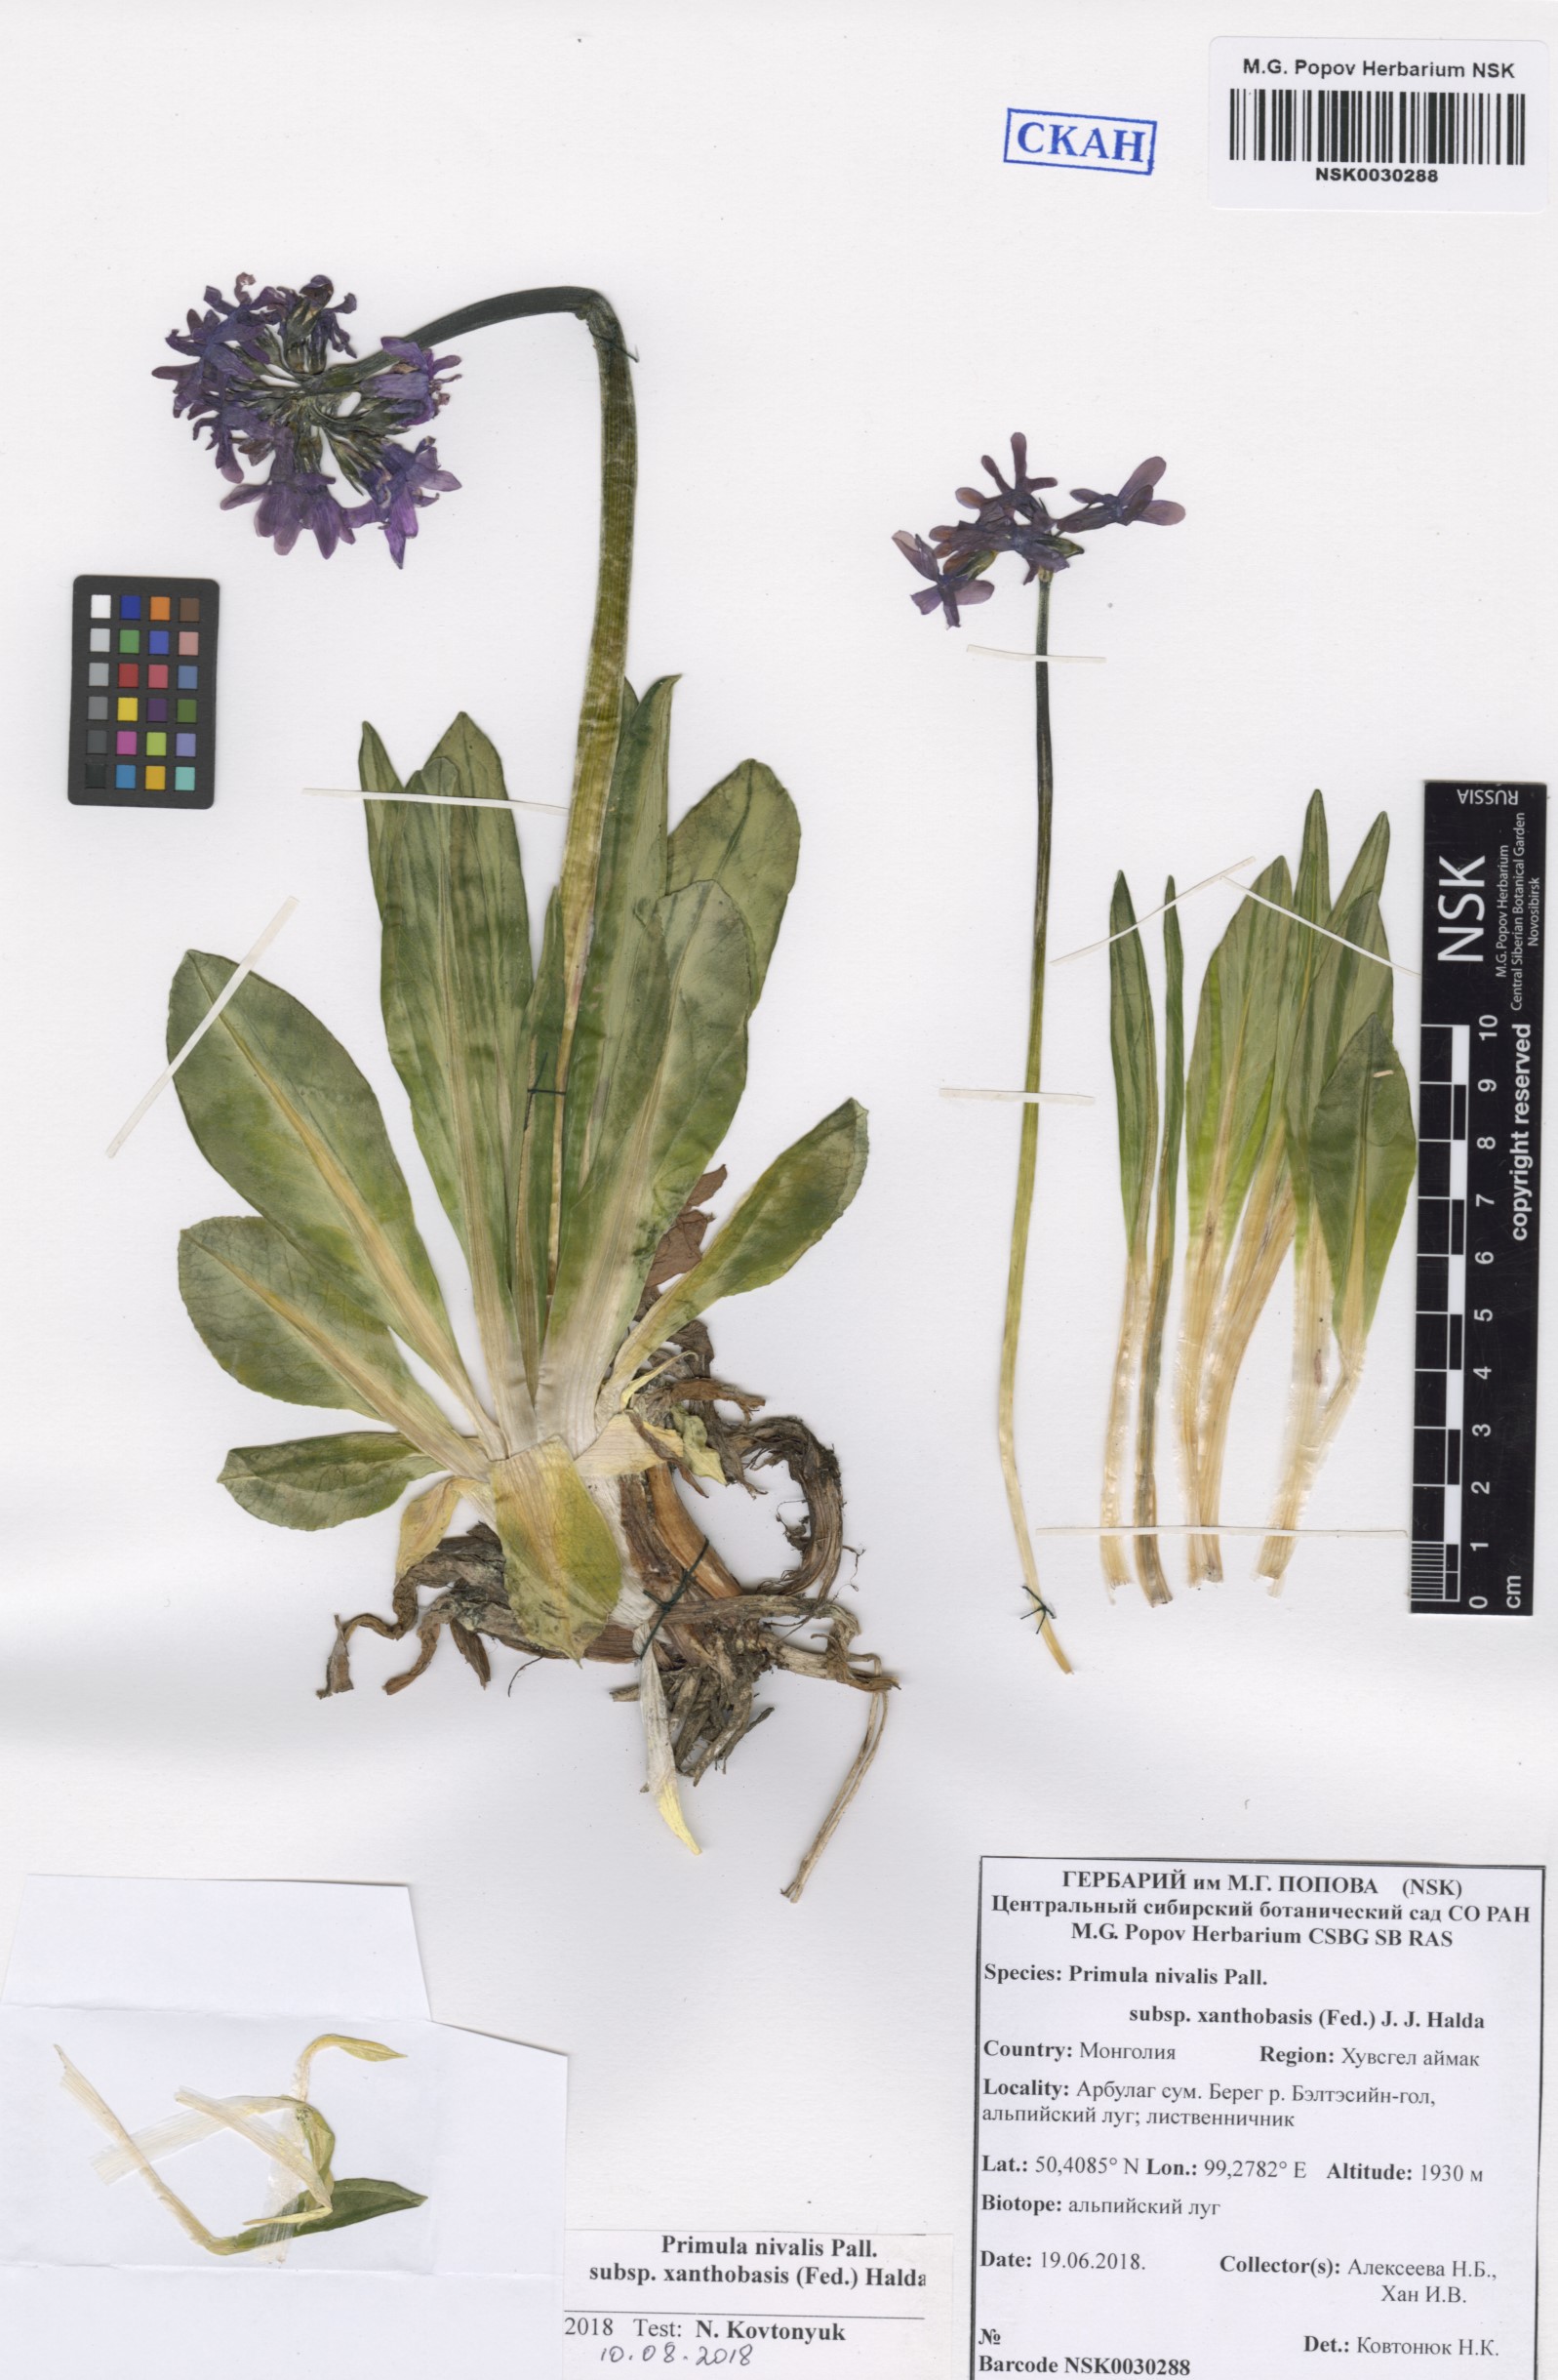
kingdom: Plantae
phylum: Tracheophyta
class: Magnoliopsida
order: Ericales
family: Primulaceae
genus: Primula
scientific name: Primula nivalis
